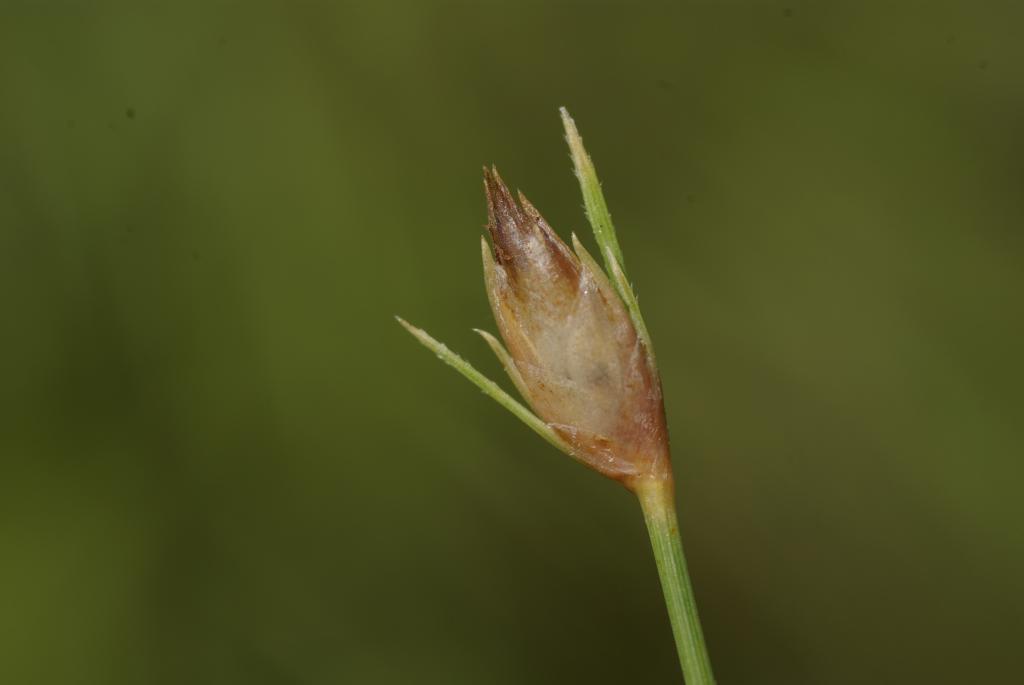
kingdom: Plantae
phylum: Tracheophyta
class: Liliopsida
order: Poales
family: Cyperaceae
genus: Abildgaardia
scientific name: Abildgaardia ovata
